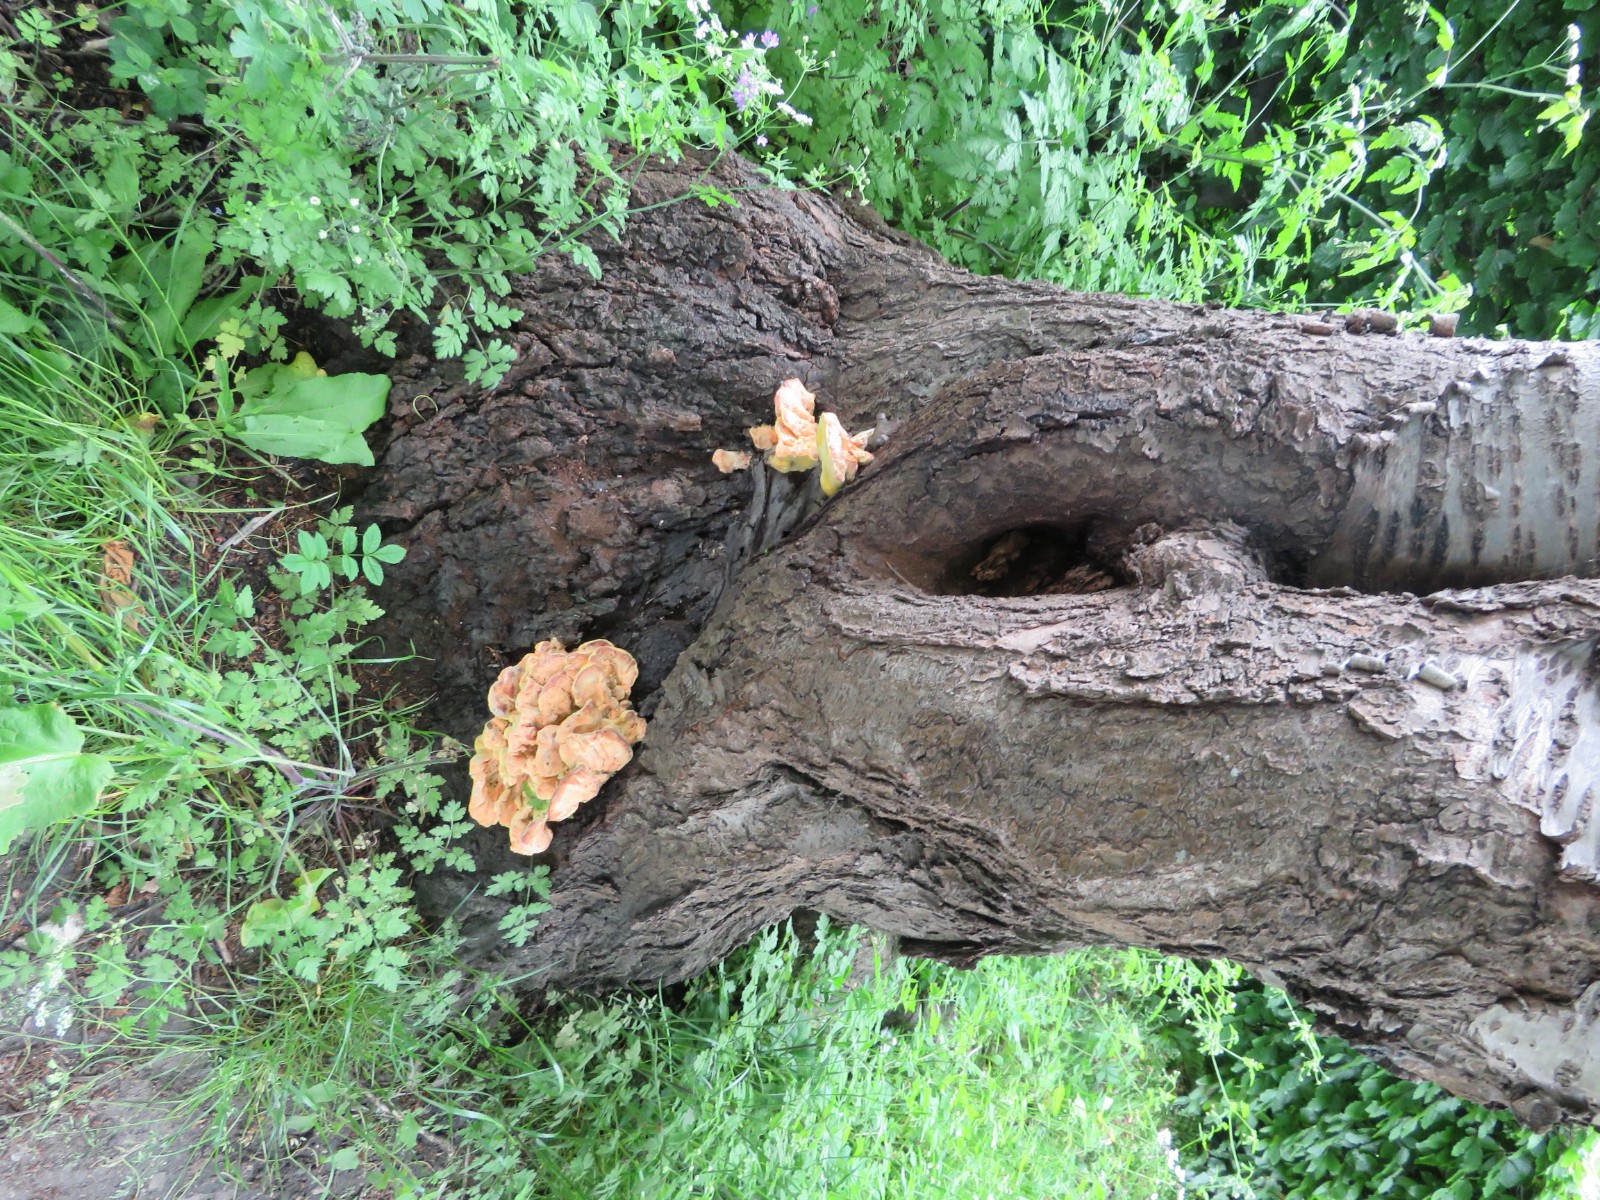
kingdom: Fungi
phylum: Basidiomycota
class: Agaricomycetes
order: Polyporales
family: Laetiporaceae
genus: Laetiporus
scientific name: Laetiporus sulphureus
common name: svovlporesvamp
